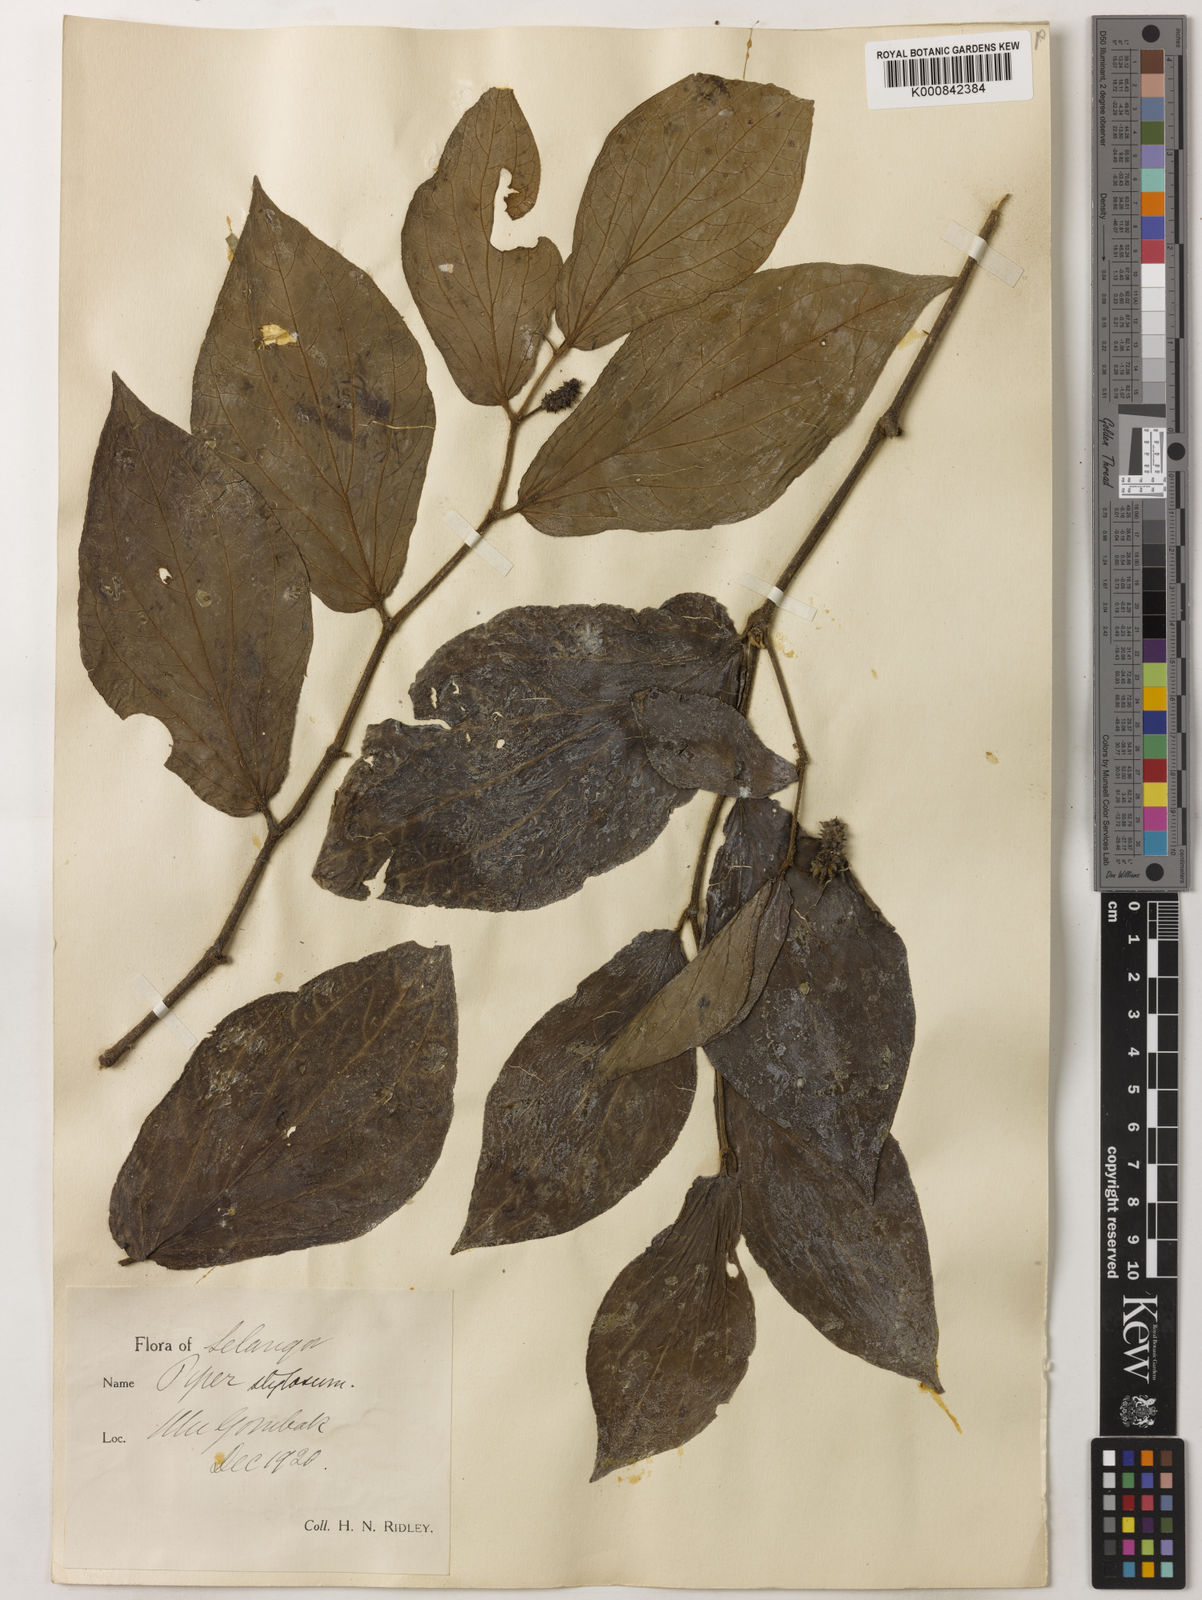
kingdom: Plantae
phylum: Tracheophyta
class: Magnoliopsida
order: Piperales
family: Piperaceae
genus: Piper
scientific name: Piper rostratum
